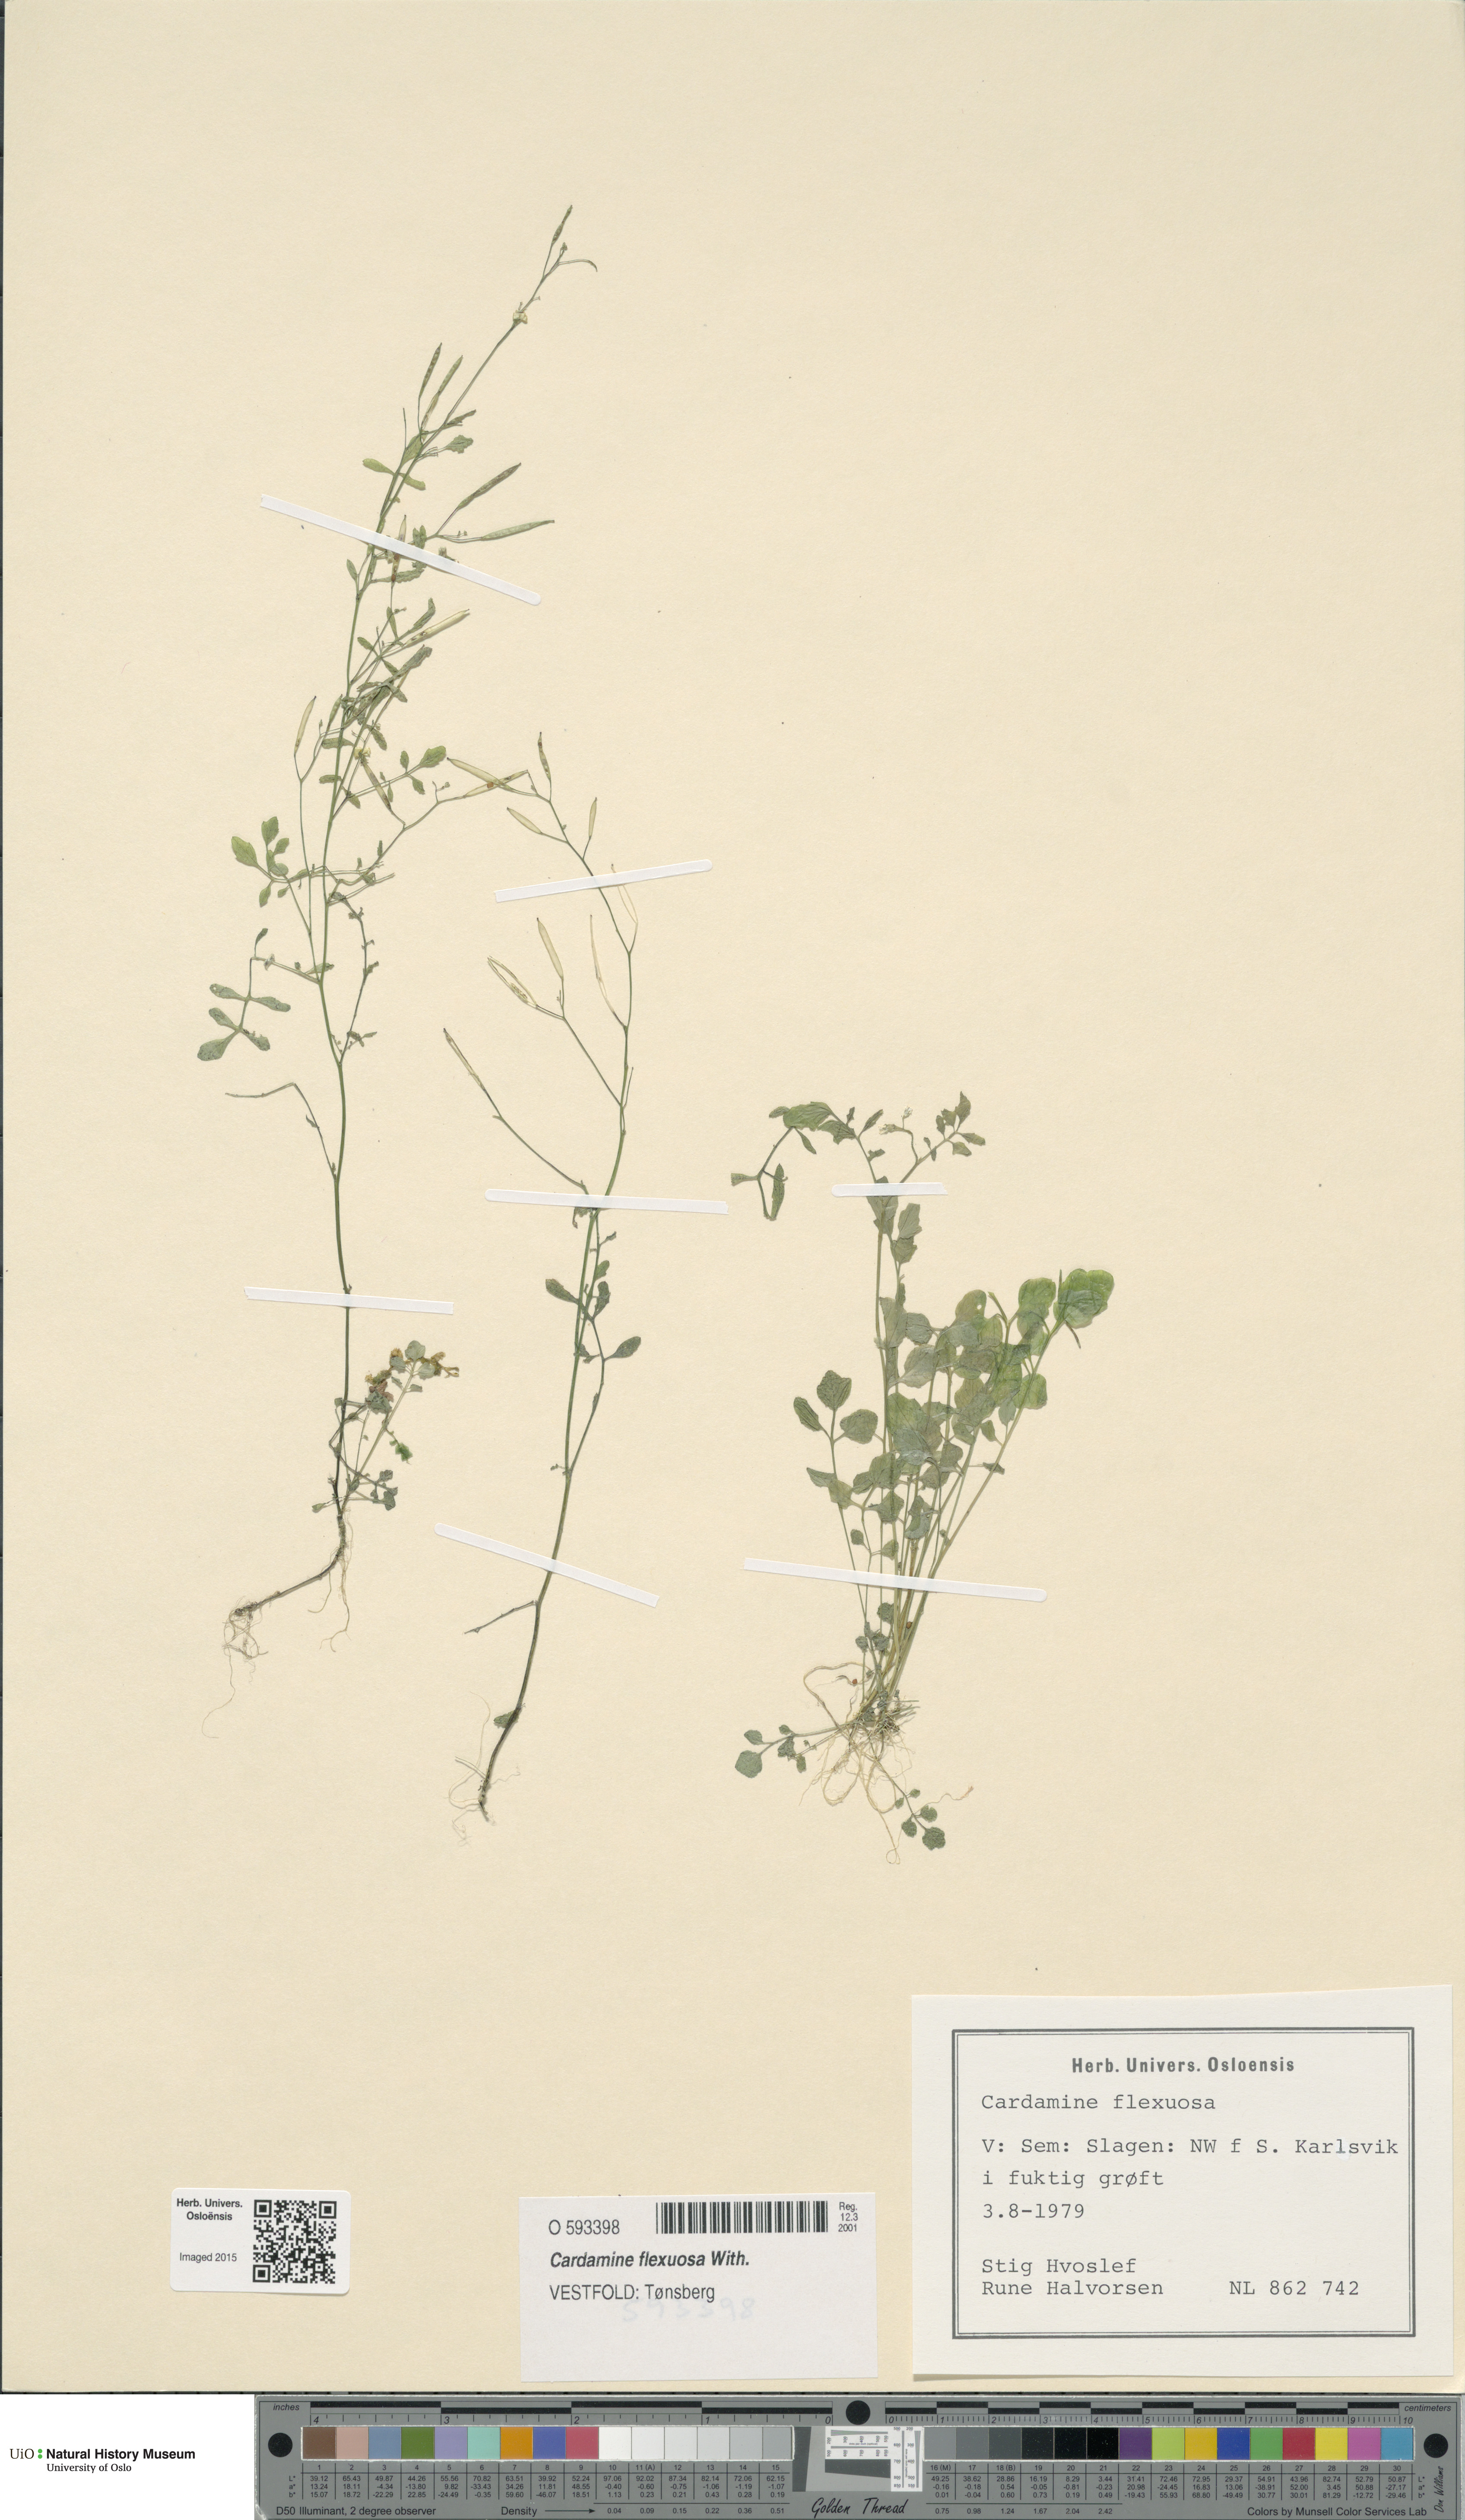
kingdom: Plantae
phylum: Tracheophyta
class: Magnoliopsida
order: Brassicales
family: Brassicaceae
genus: Cardamine
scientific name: Cardamine flexuosa
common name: Woodland bittercress
